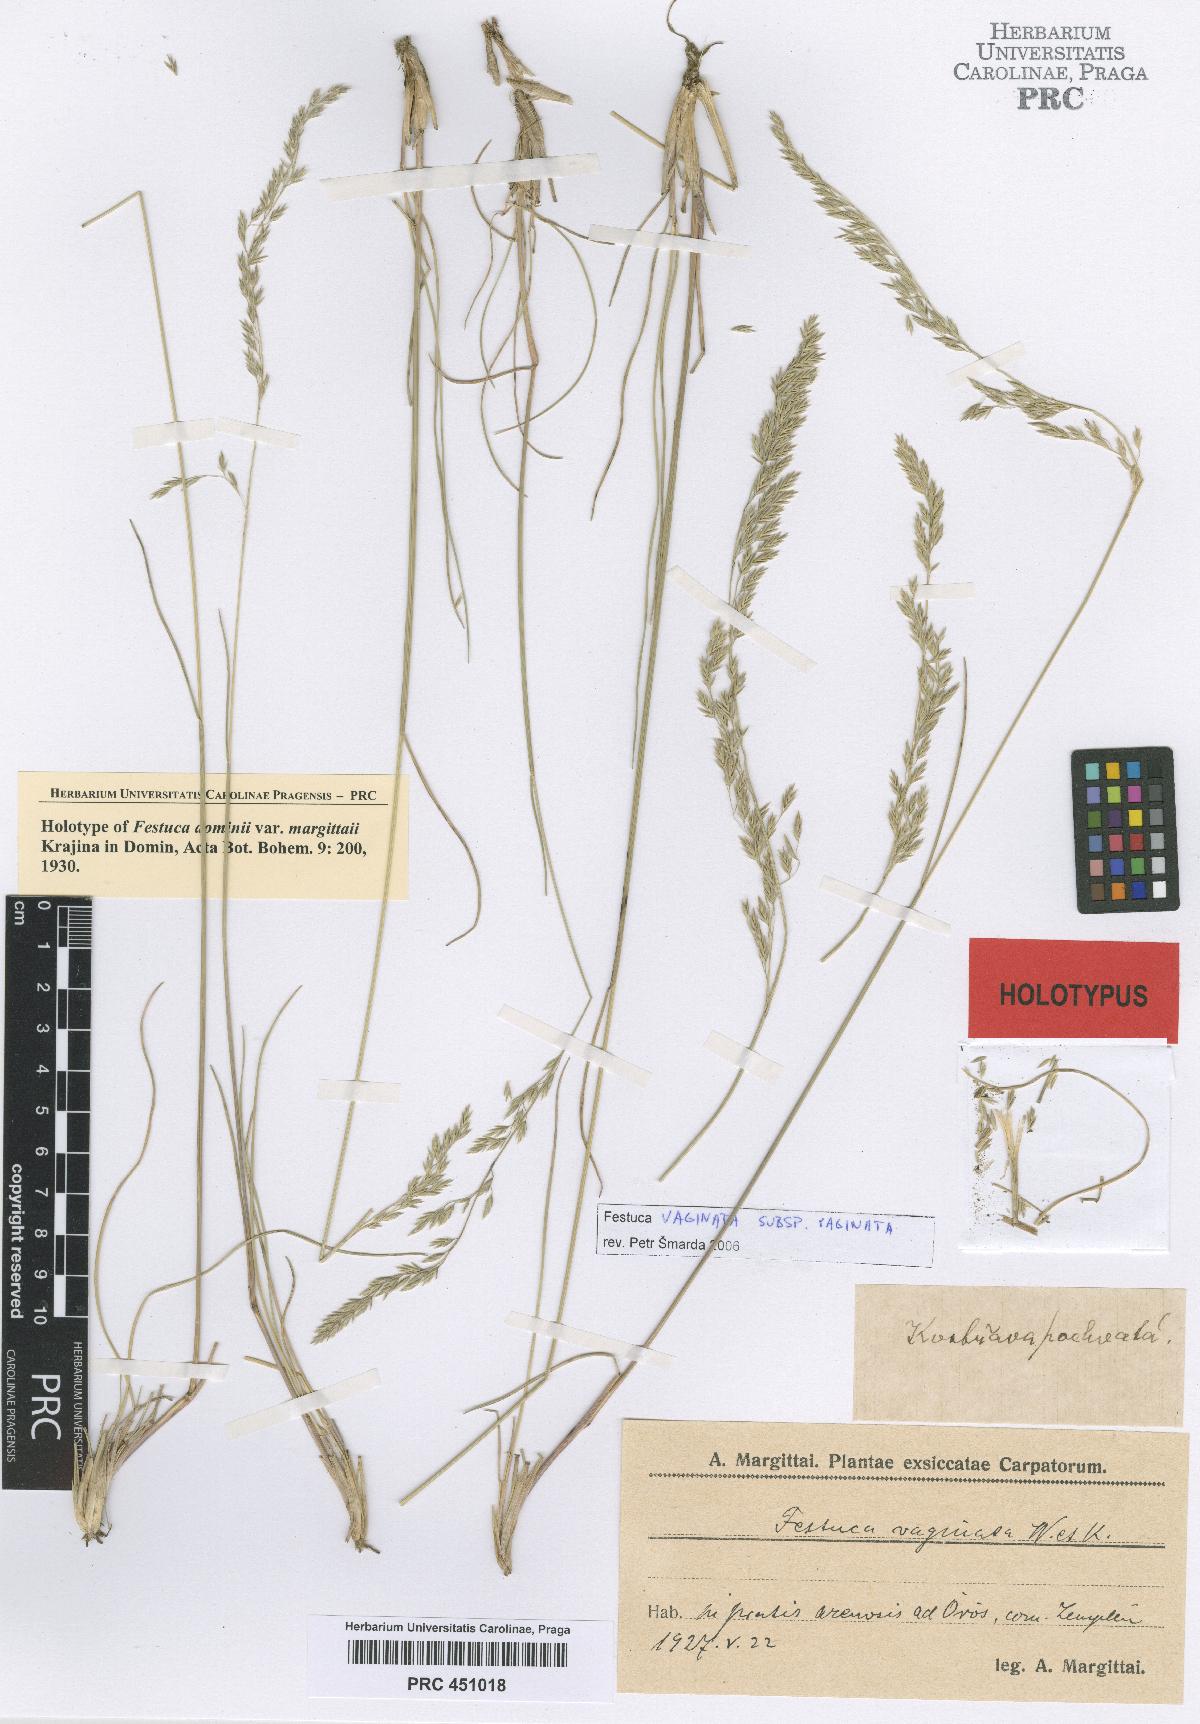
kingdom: Plantae
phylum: Tracheophyta
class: Liliopsida
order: Poales
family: Poaceae
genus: Festuca
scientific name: Festuca vaginata
